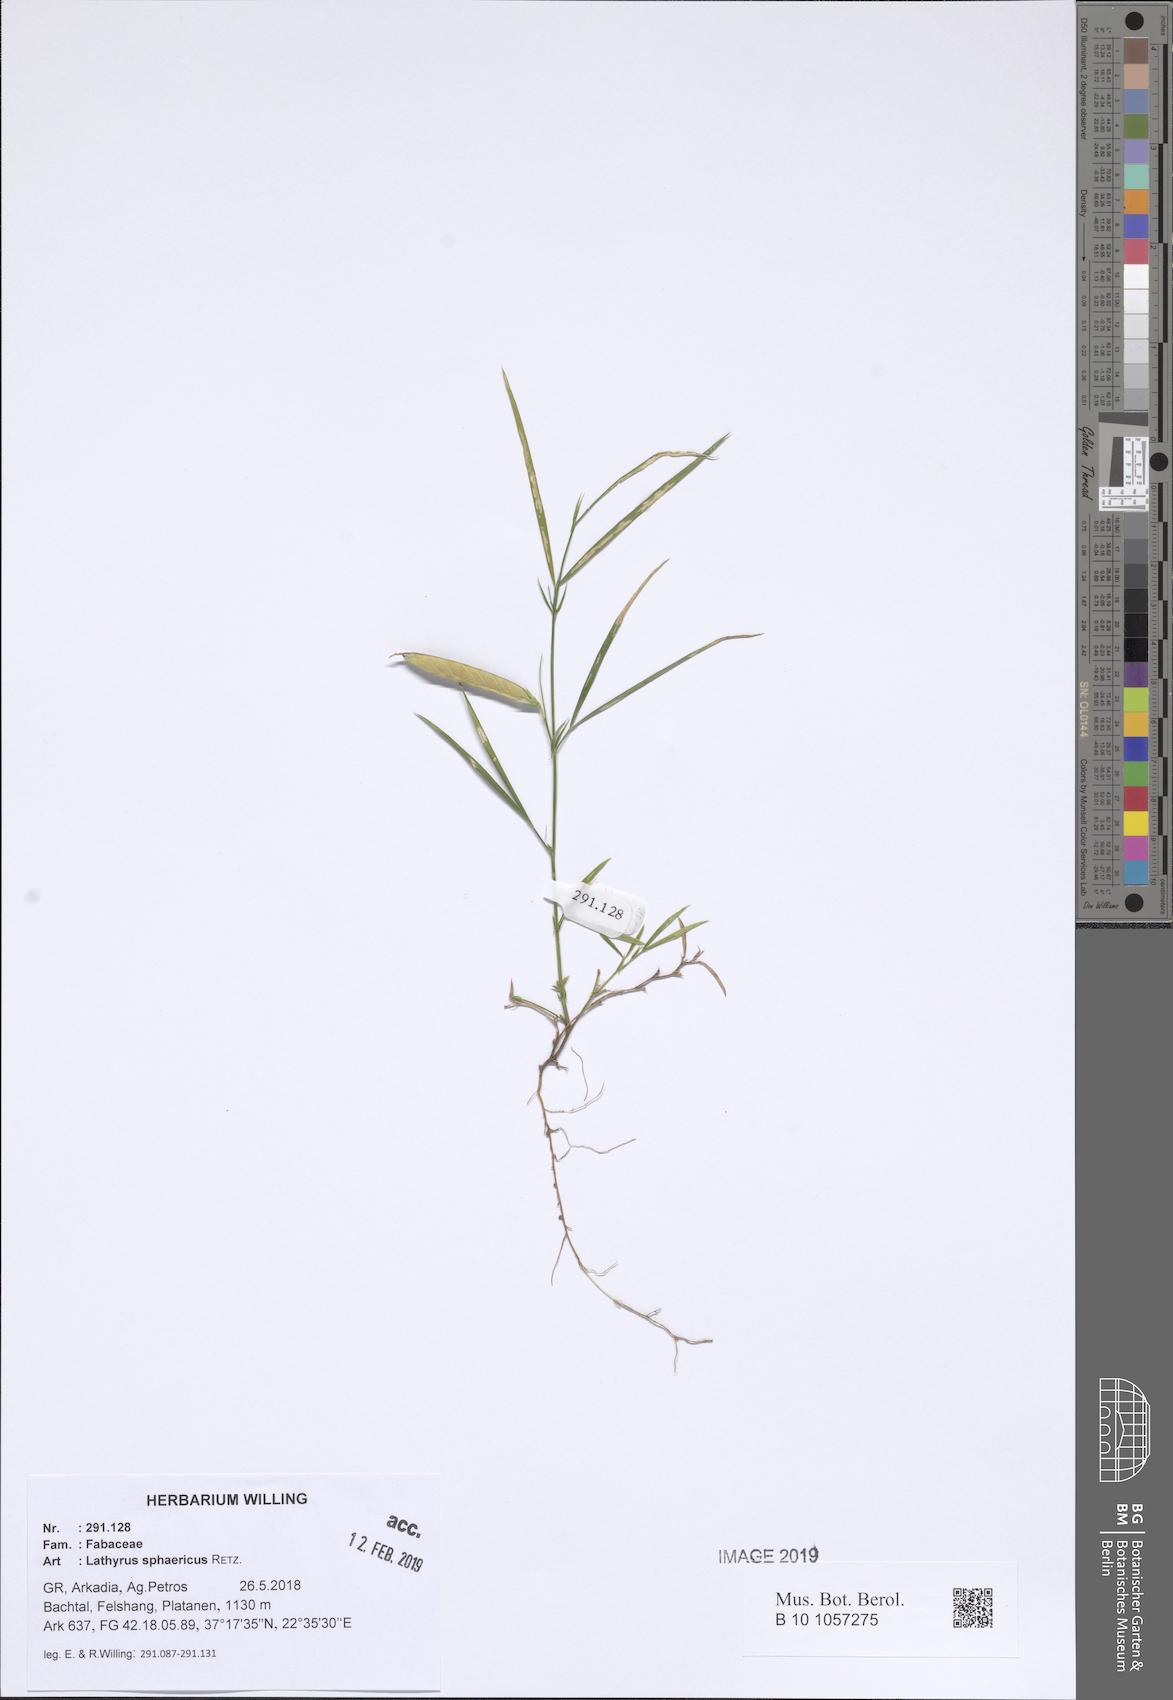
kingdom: Plantae
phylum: Tracheophyta
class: Magnoliopsida
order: Fabales
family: Fabaceae
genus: Lathyrus
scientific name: Lathyrus sphaericus
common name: Grass pea
